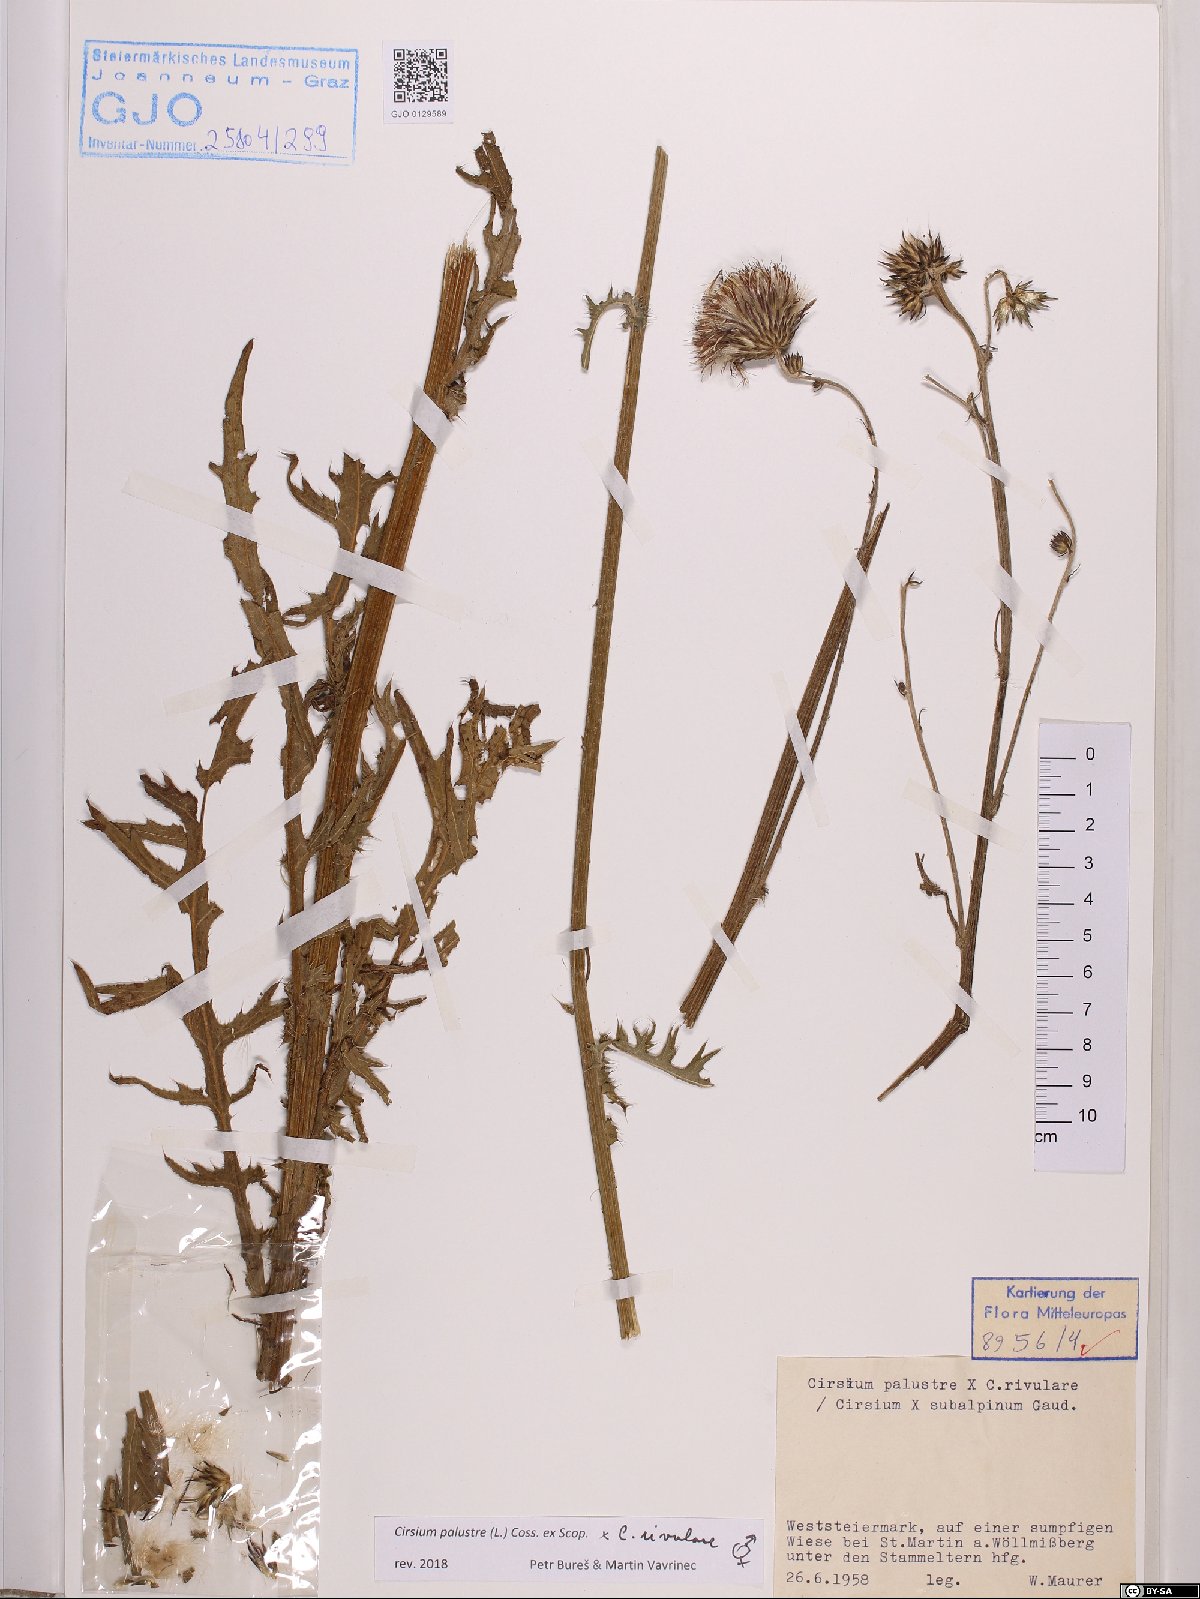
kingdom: Plantae
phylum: Tracheophyta
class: Magnoliopsida
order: Asterales
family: Asteraceae
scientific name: Asteraceae
